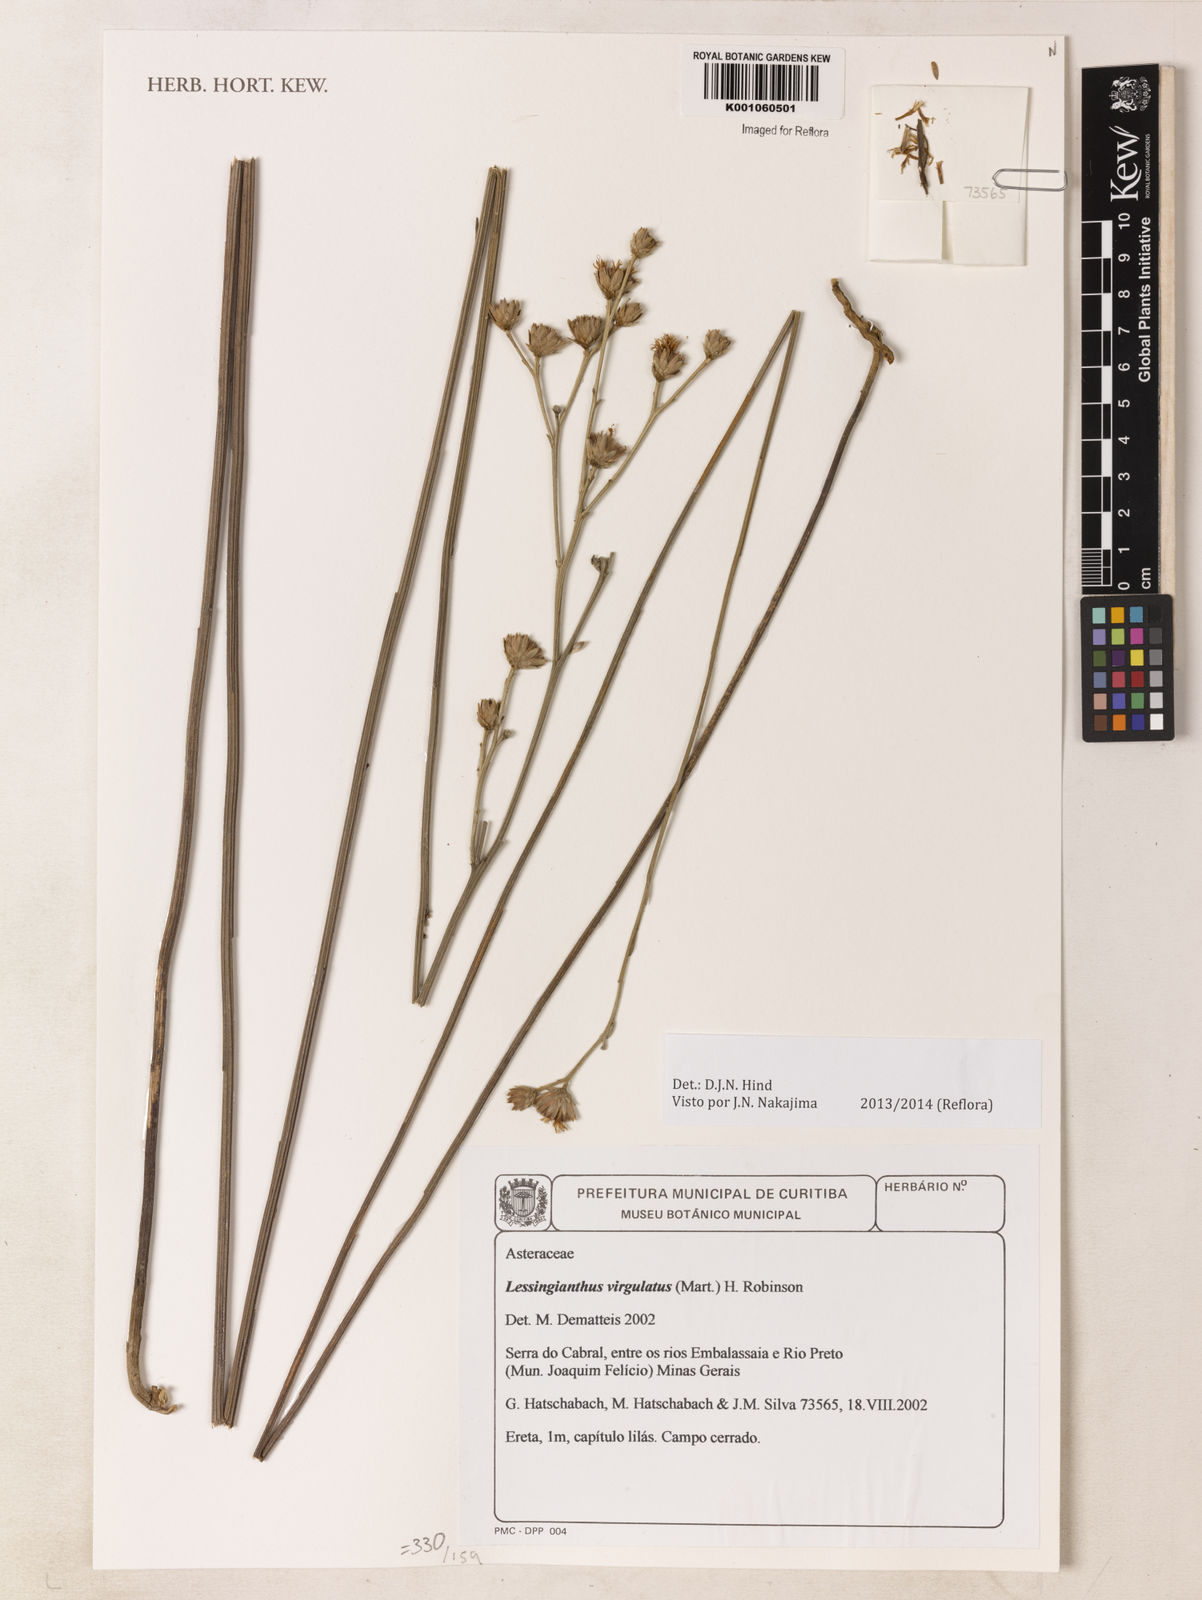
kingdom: Plantae
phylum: Tracheophyta
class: Magnoliopsida
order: Asterales
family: Asteraceae
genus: Lessingianthus
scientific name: Lessingianthus virgulatus
